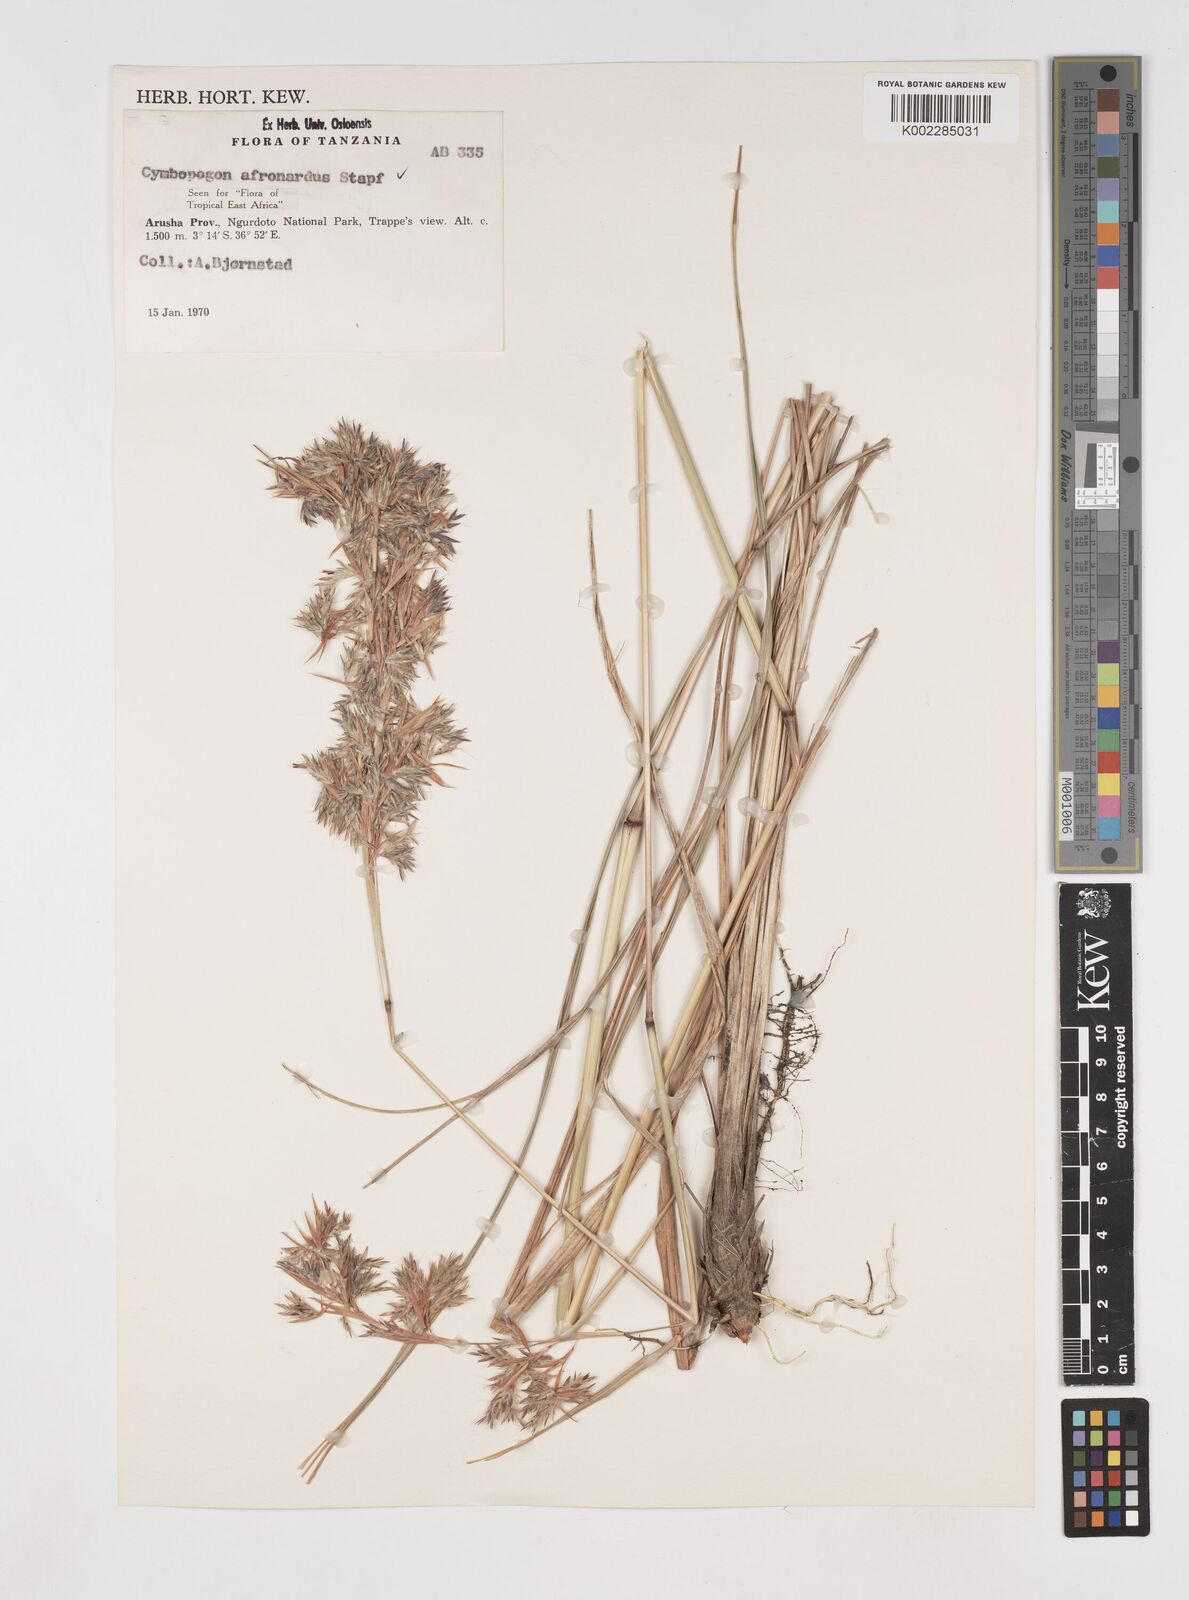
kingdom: Plantae
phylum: Tracheophyta
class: Liliopsida
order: Poales
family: Poaceae
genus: Cymbopogon
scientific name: Cymbopogon nardus
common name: Giant turpentine grass
